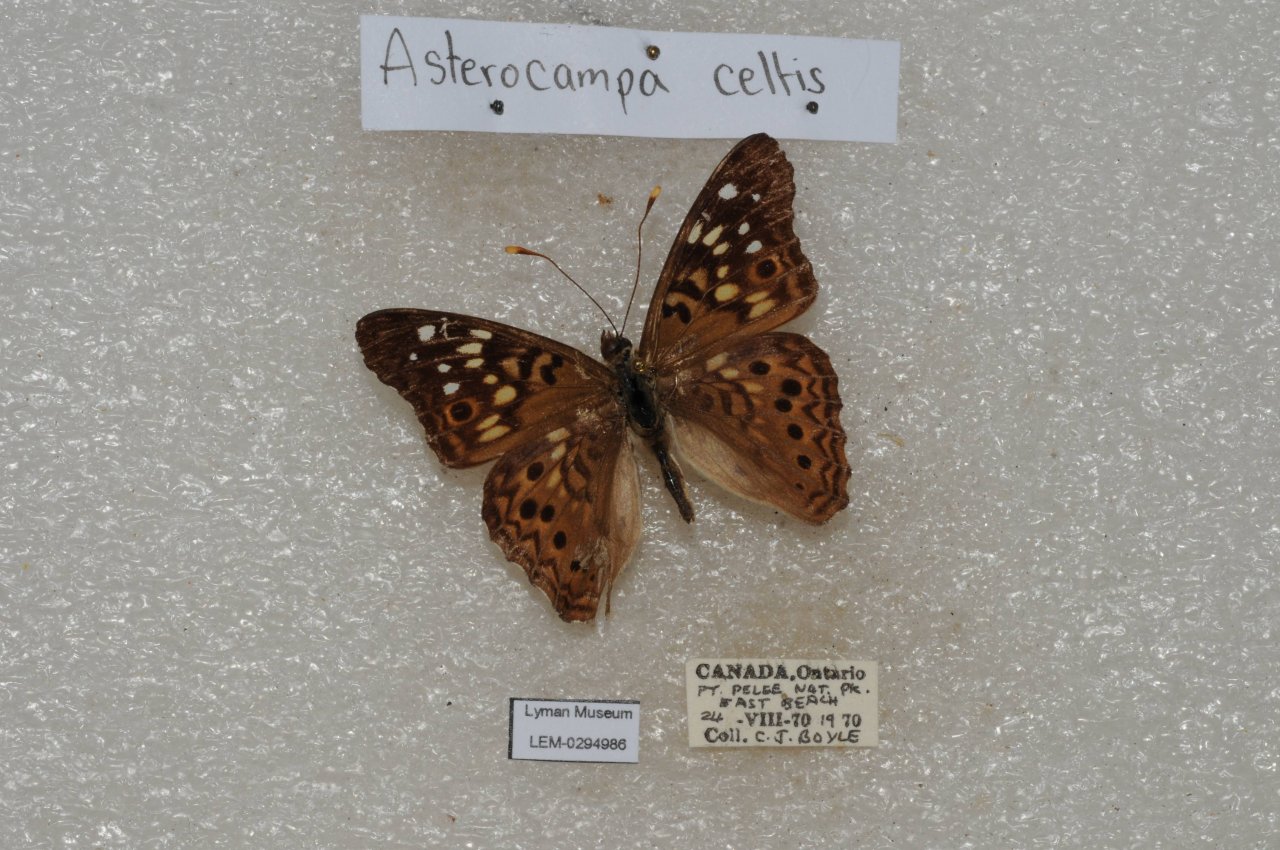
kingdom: Animalia
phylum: Arthropoda
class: Insecta
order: Lepidoptera
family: Nymphalidae
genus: Asterocampa
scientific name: Asterocampa celtis
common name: Hackberry Emperor
